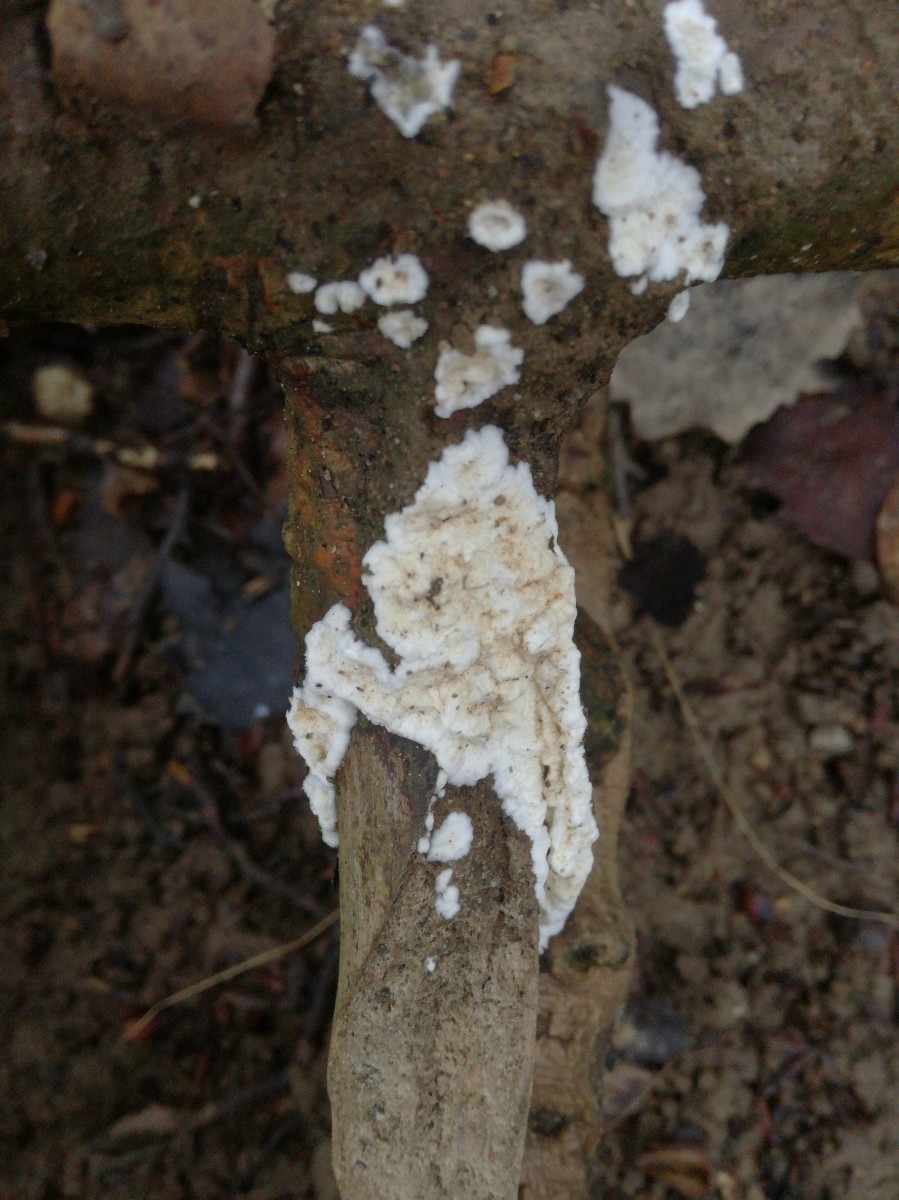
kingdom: Fungi
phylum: Basidiomycota
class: Agaricomycetes
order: Polyporales
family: Irpicaceae
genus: Byssomerulius
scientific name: Byssomerulius corium
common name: læder-åresvamp
